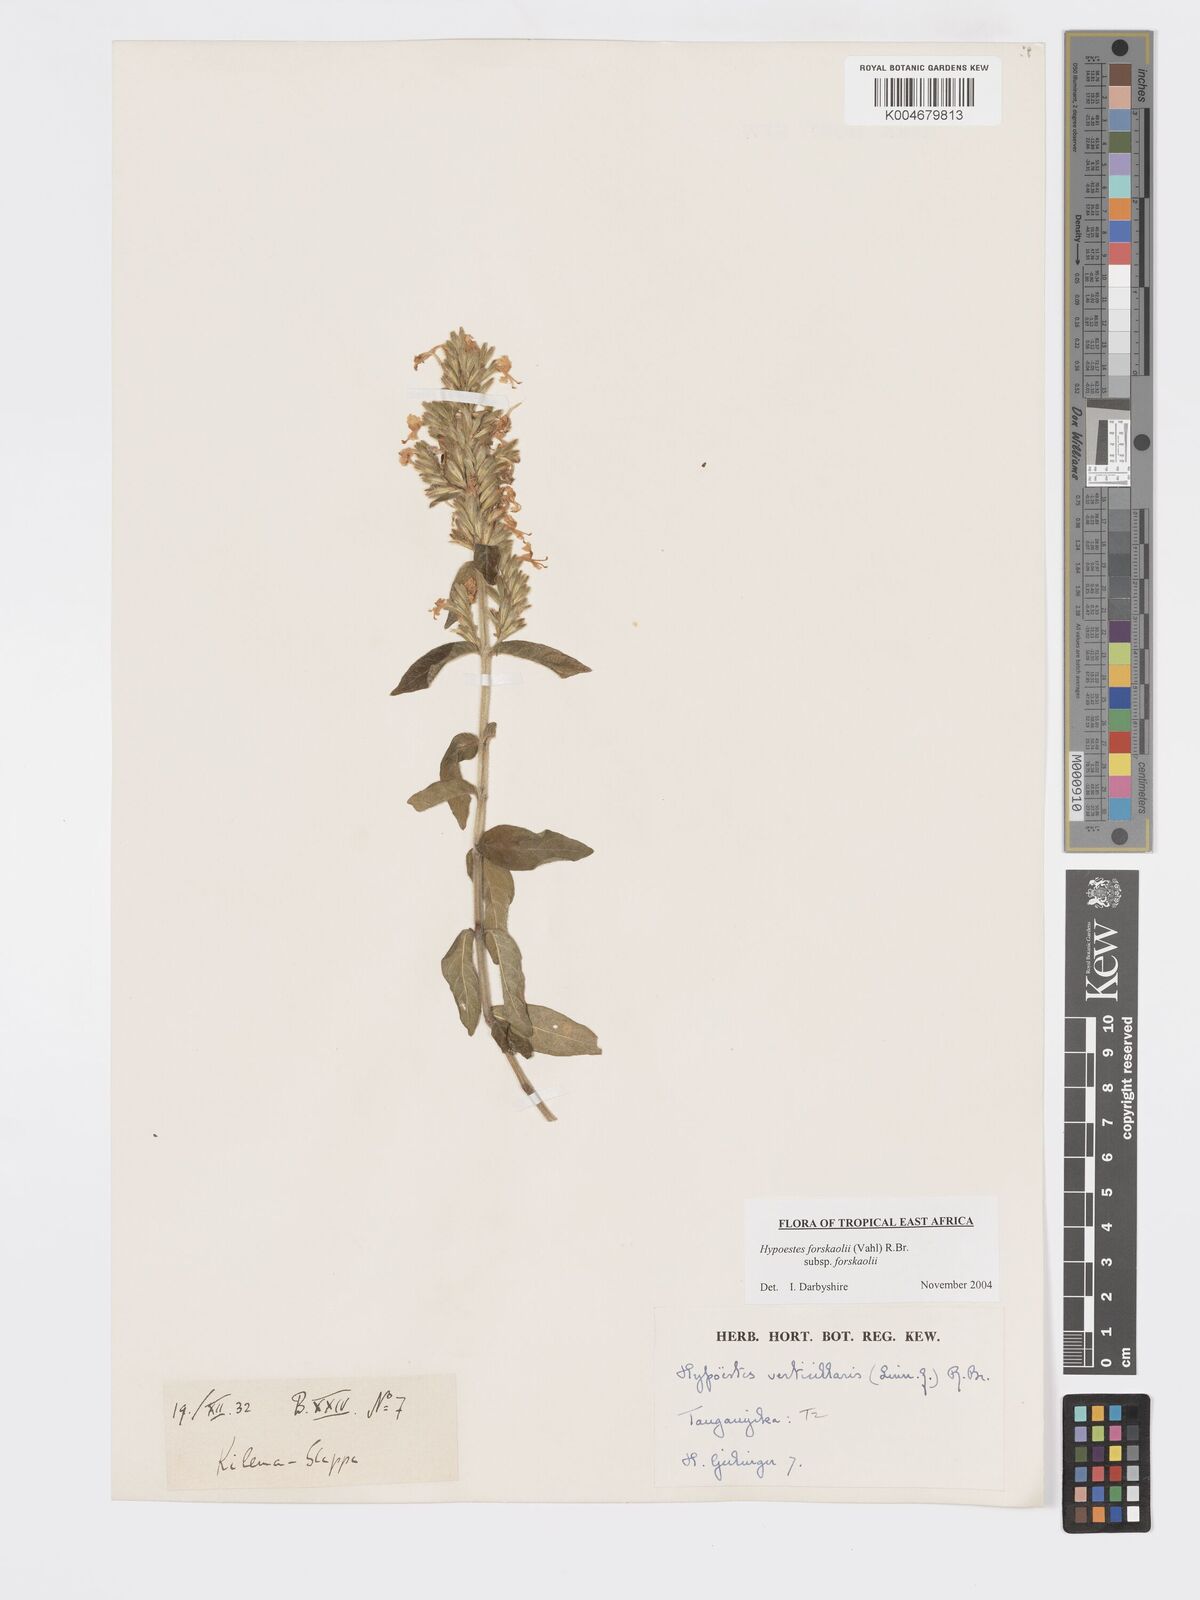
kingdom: Plantae
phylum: Tracheophyta
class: Magnoliopsida
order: Lamiales
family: Acanthaceae
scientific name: Acanthaceae
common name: Acanthaceae
